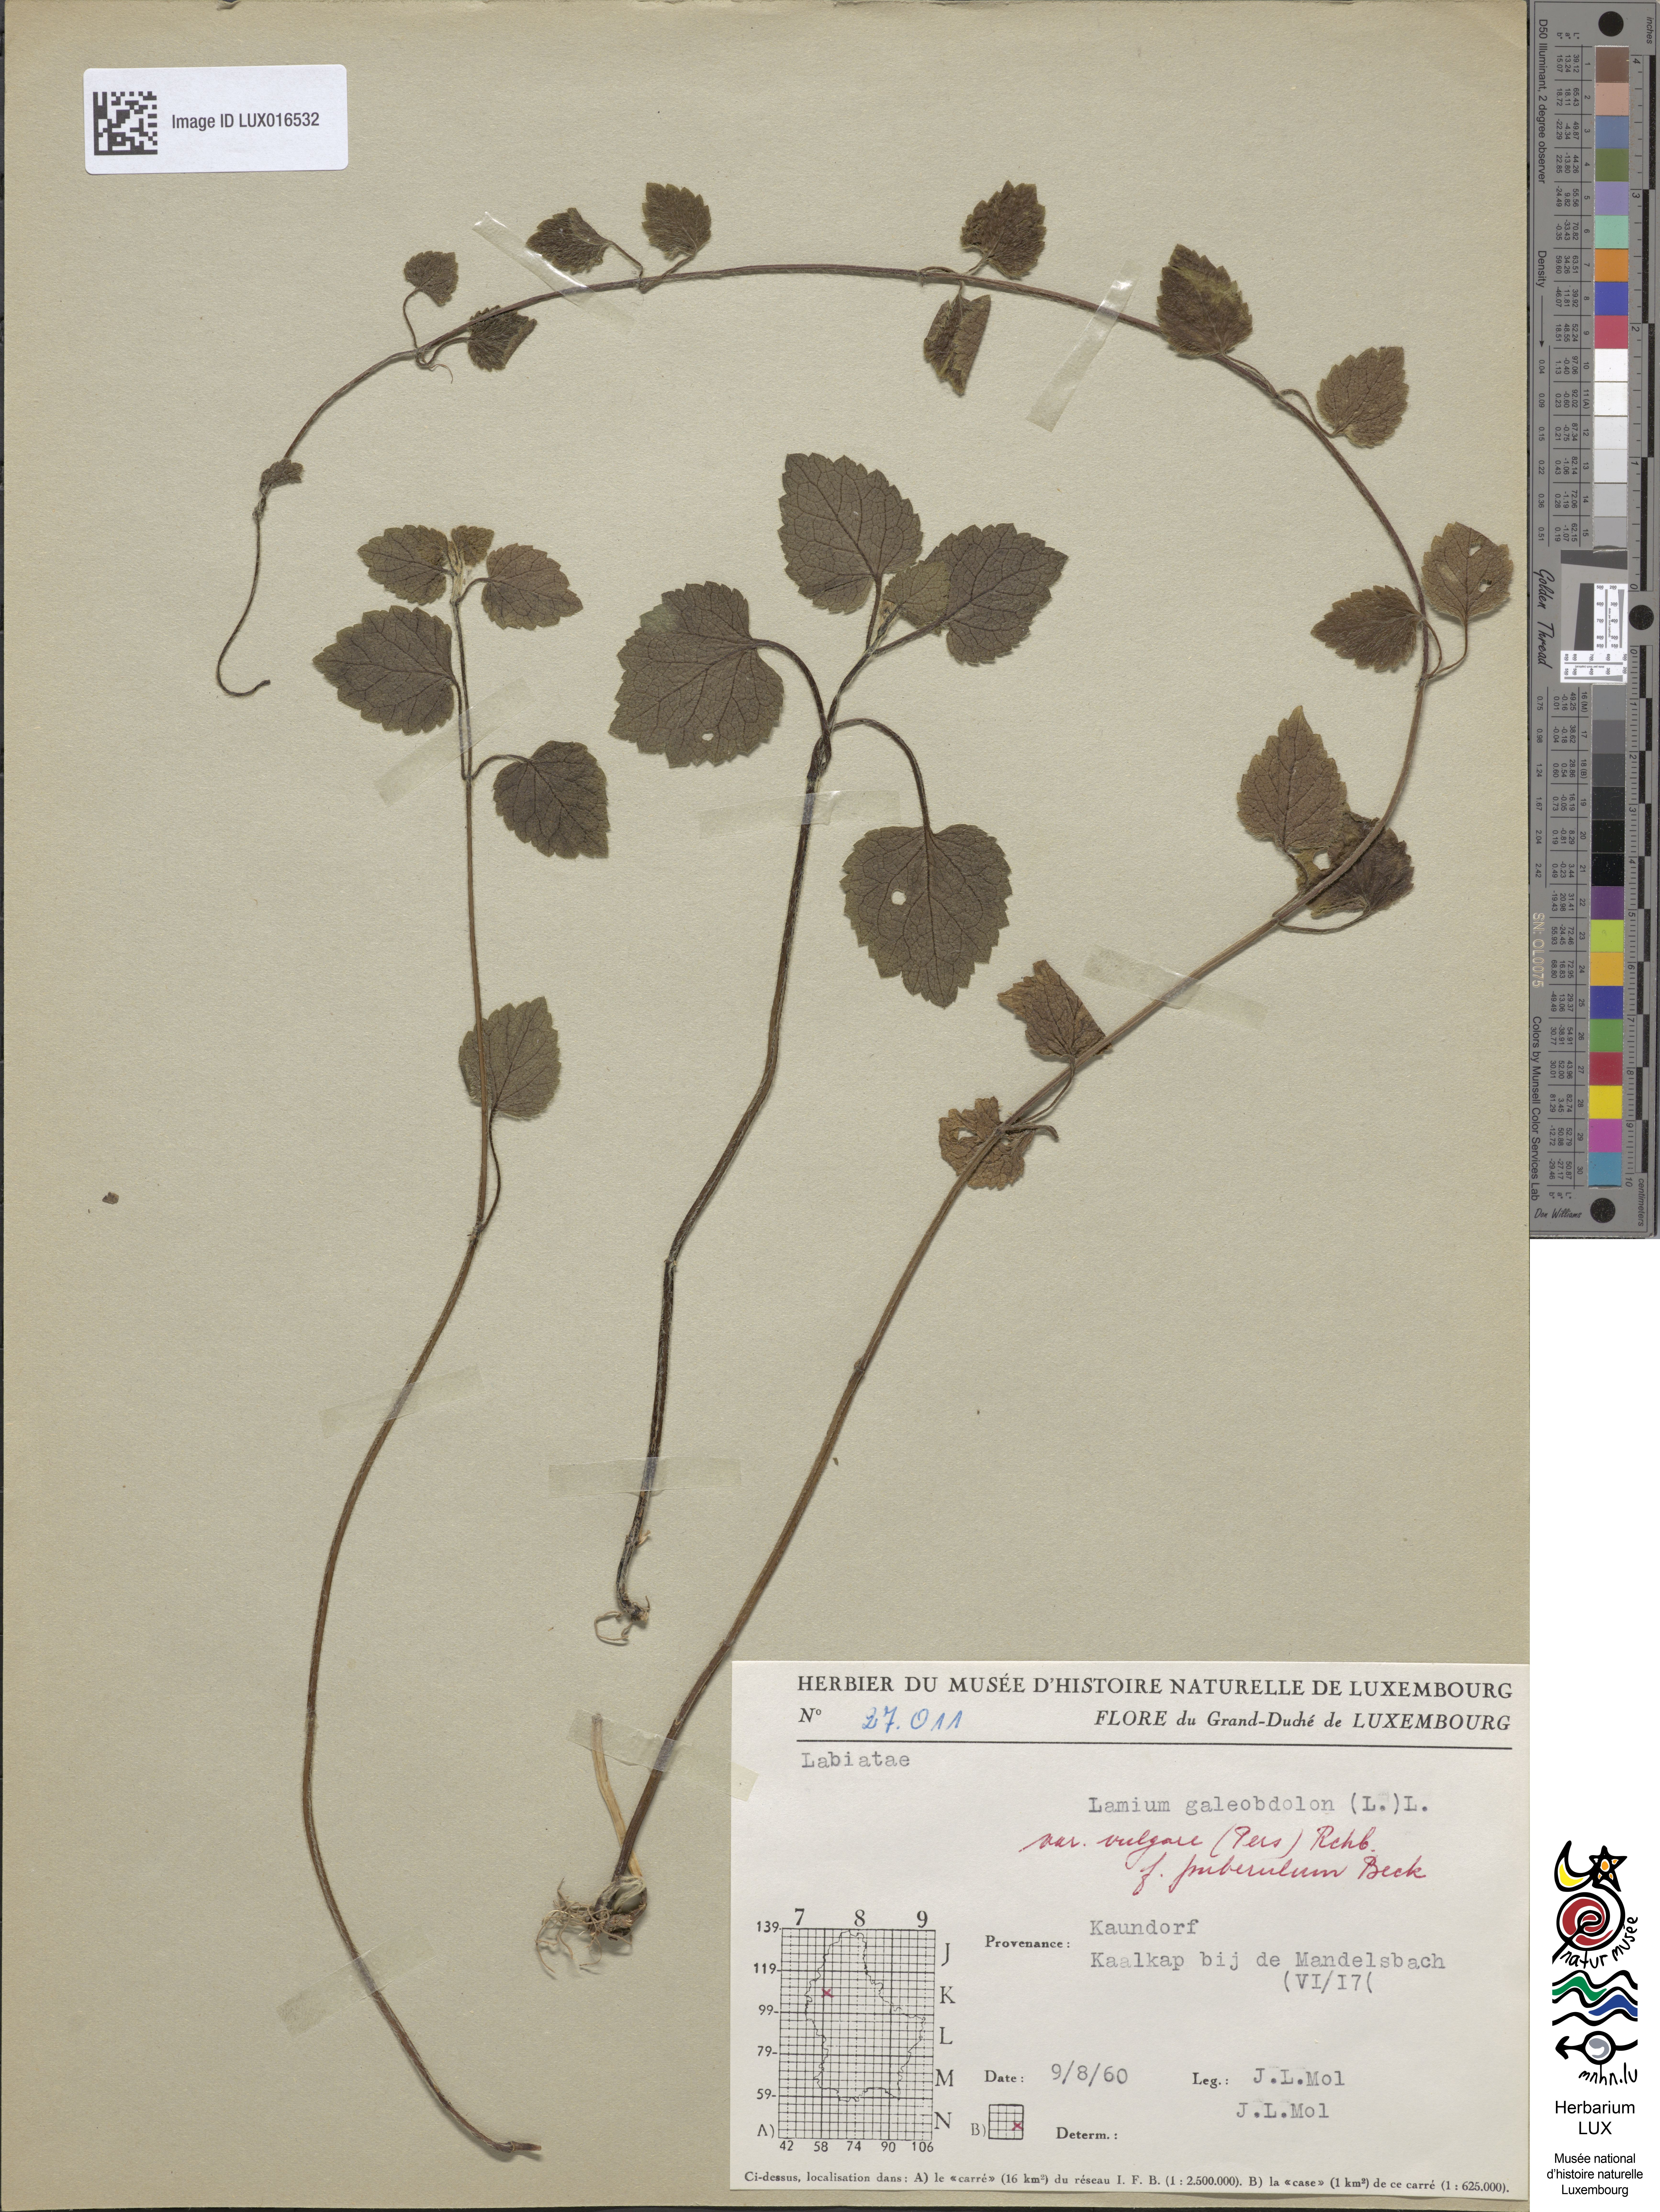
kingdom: Plantae
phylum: Tracheophyta
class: Magnoliopsida
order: Lamiales
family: Lamiaceae
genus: Lamium
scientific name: Lamium galeobdolon
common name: Yellow archangel
